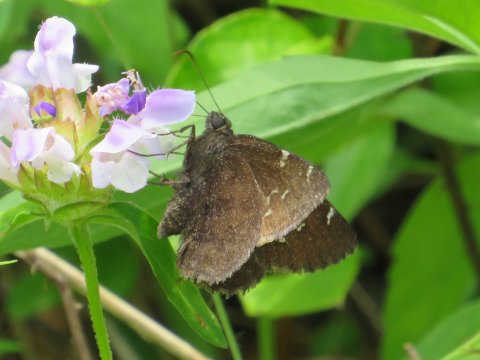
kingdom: Animalia
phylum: Arthropoda
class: Insecta
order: Lepidoptera
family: Hesperiidae
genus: Autochton
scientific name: Autochton
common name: Northern Cloudywing
